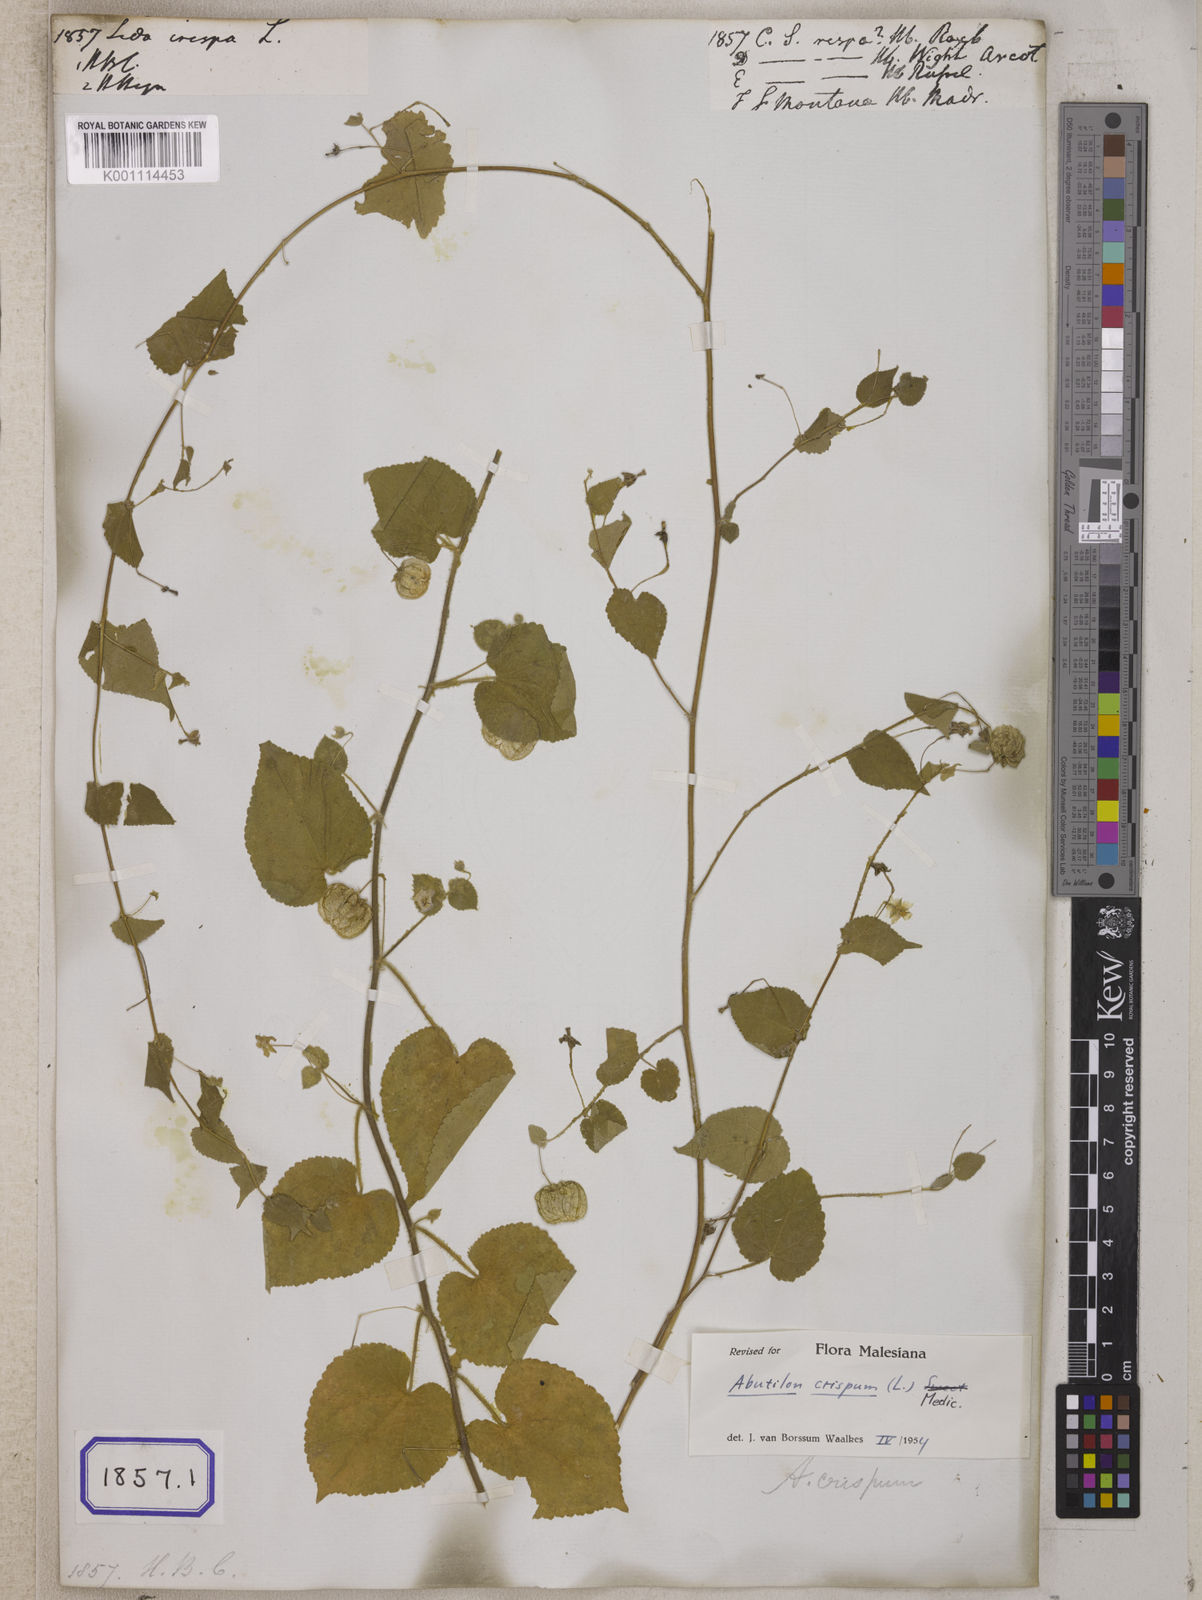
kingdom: Plantae
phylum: Tracheophyta
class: Magnoliopsida
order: Malvales
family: Malvaceae
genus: Herissantia
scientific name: Herissantia crispa
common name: Bladdermallow
